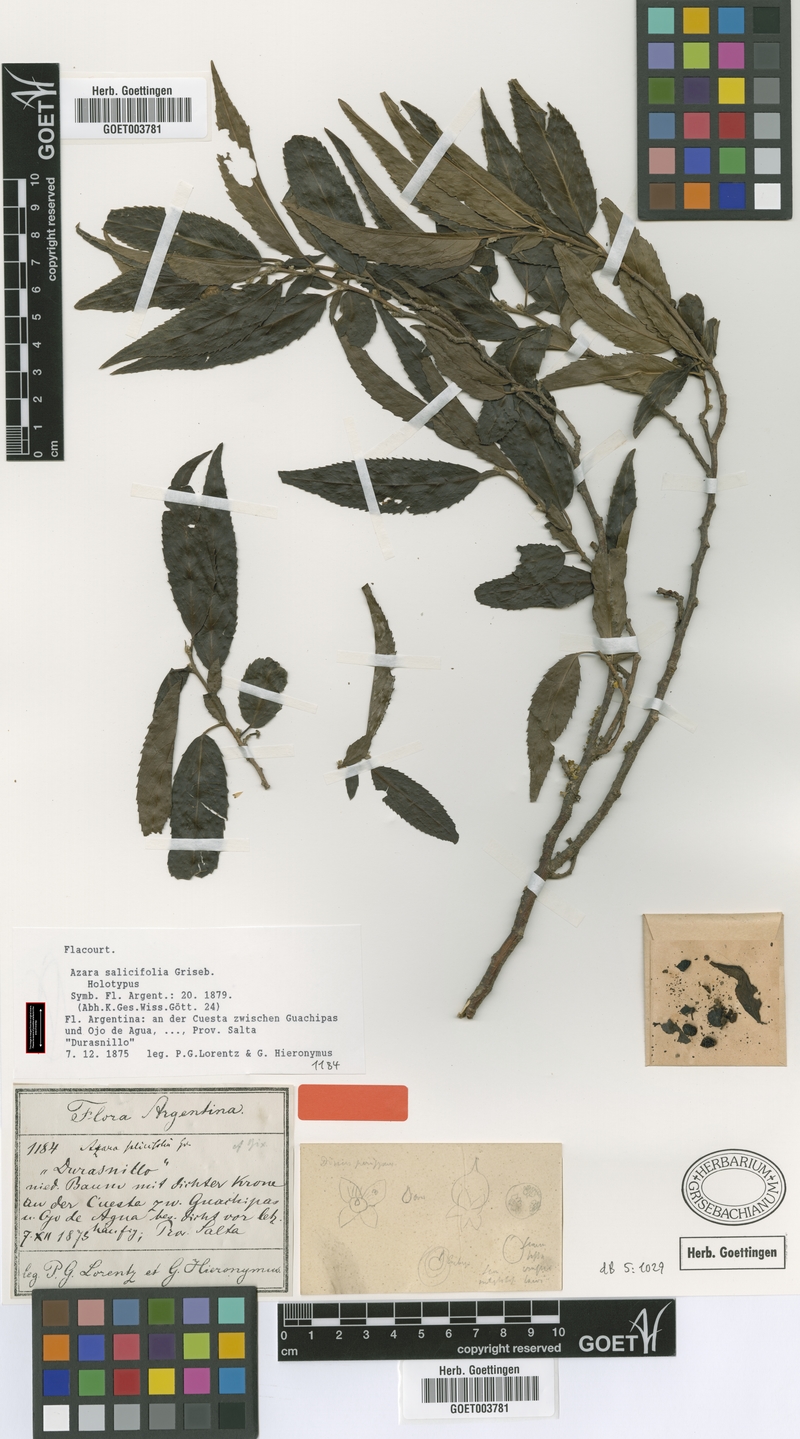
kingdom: Plantae
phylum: Tracheophyta
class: Magnoliopsida
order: Malpighiales
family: Salicaceae
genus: Azara
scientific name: Azara salicifolia
